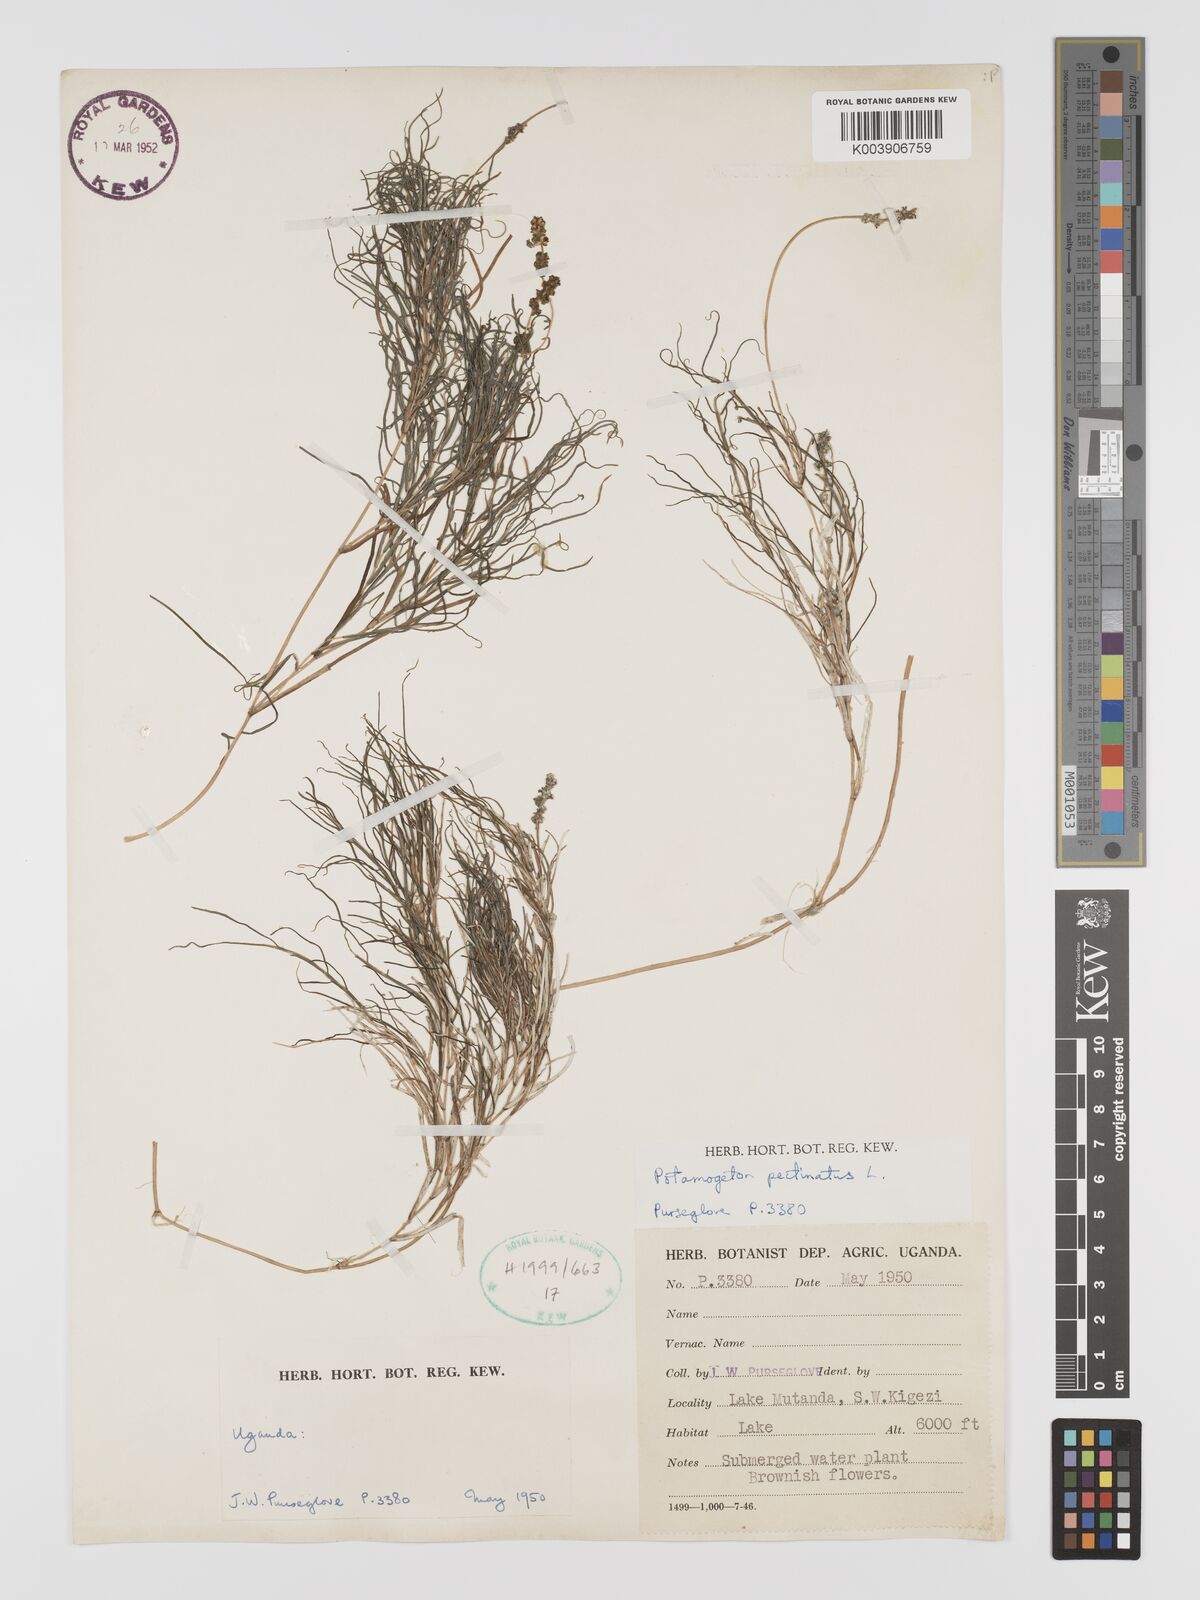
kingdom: Plantae
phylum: Tracheophyta
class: Liliopsida
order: Alismatales
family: Potamogetonaceae
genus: Stuckenia
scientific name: Stuckenia pectinata
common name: Sago pondweed
